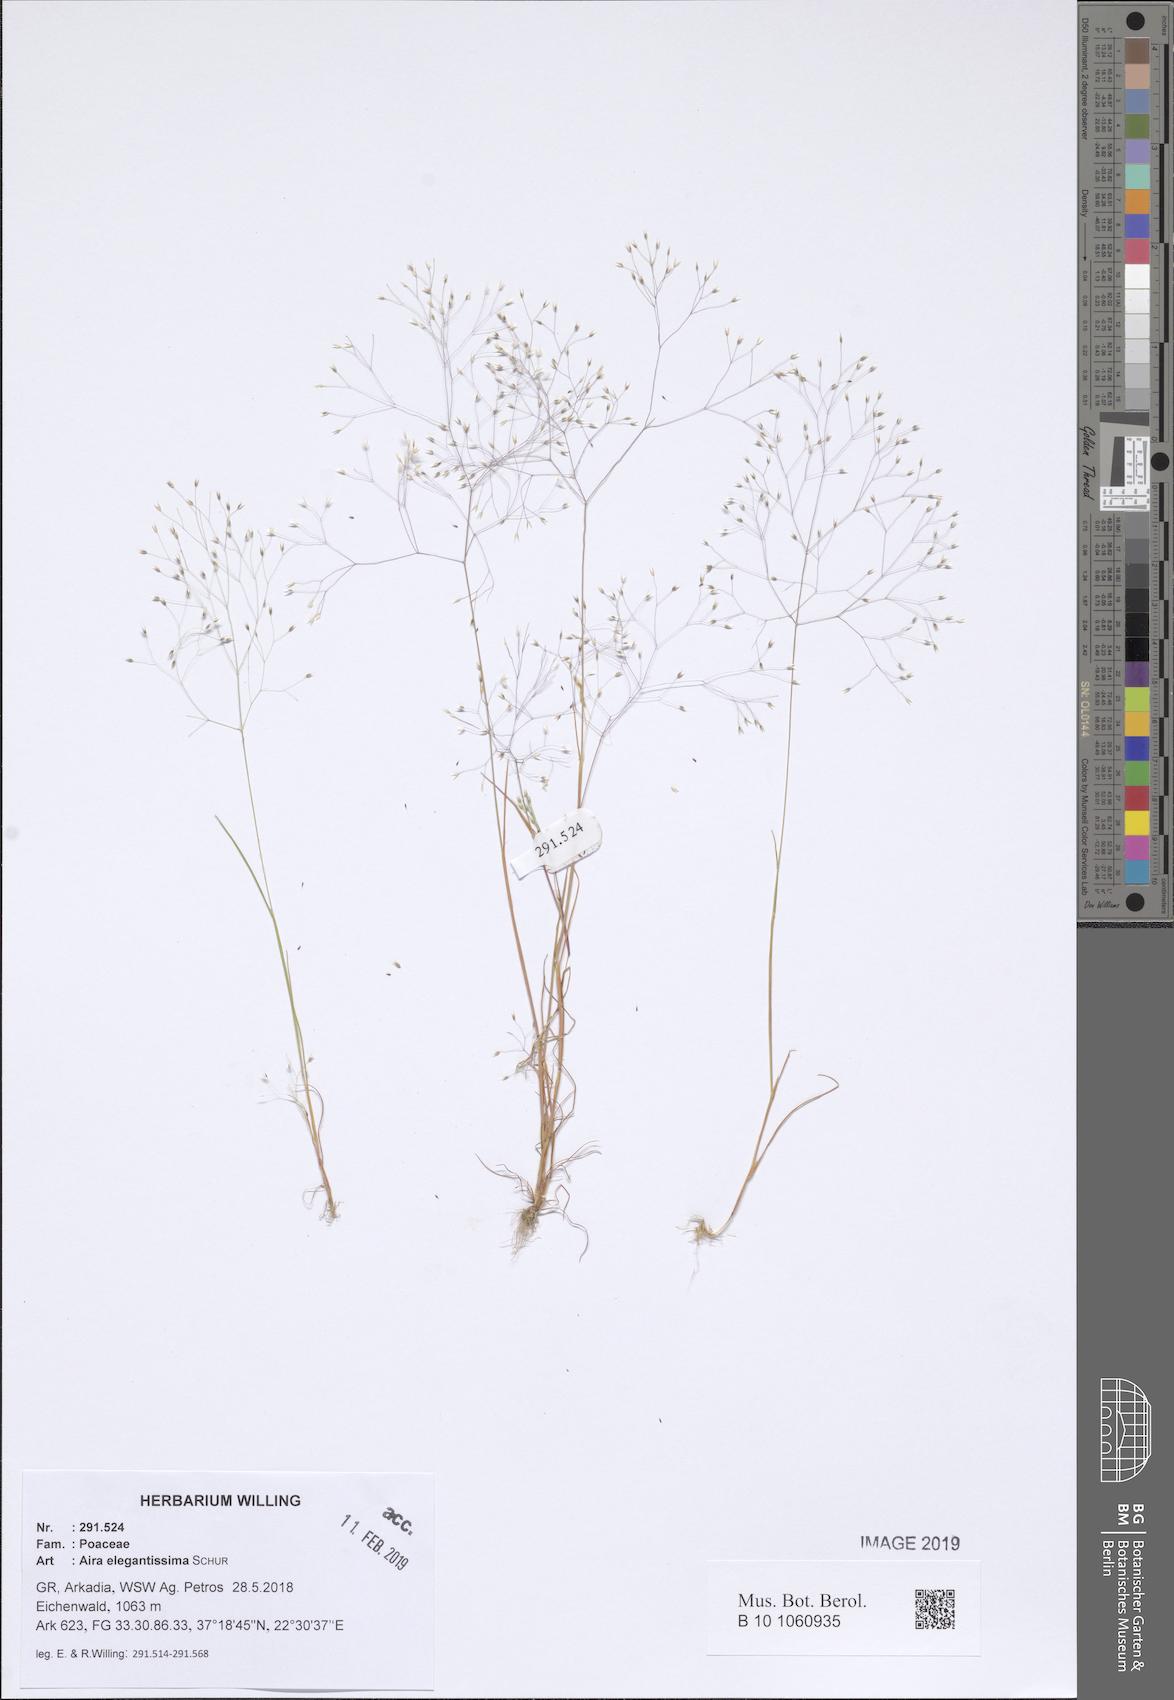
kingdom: Plantae
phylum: Tracheophyta
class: Liliopsida
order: Poales
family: Poaceae
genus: Aira
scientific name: Aira elegans
